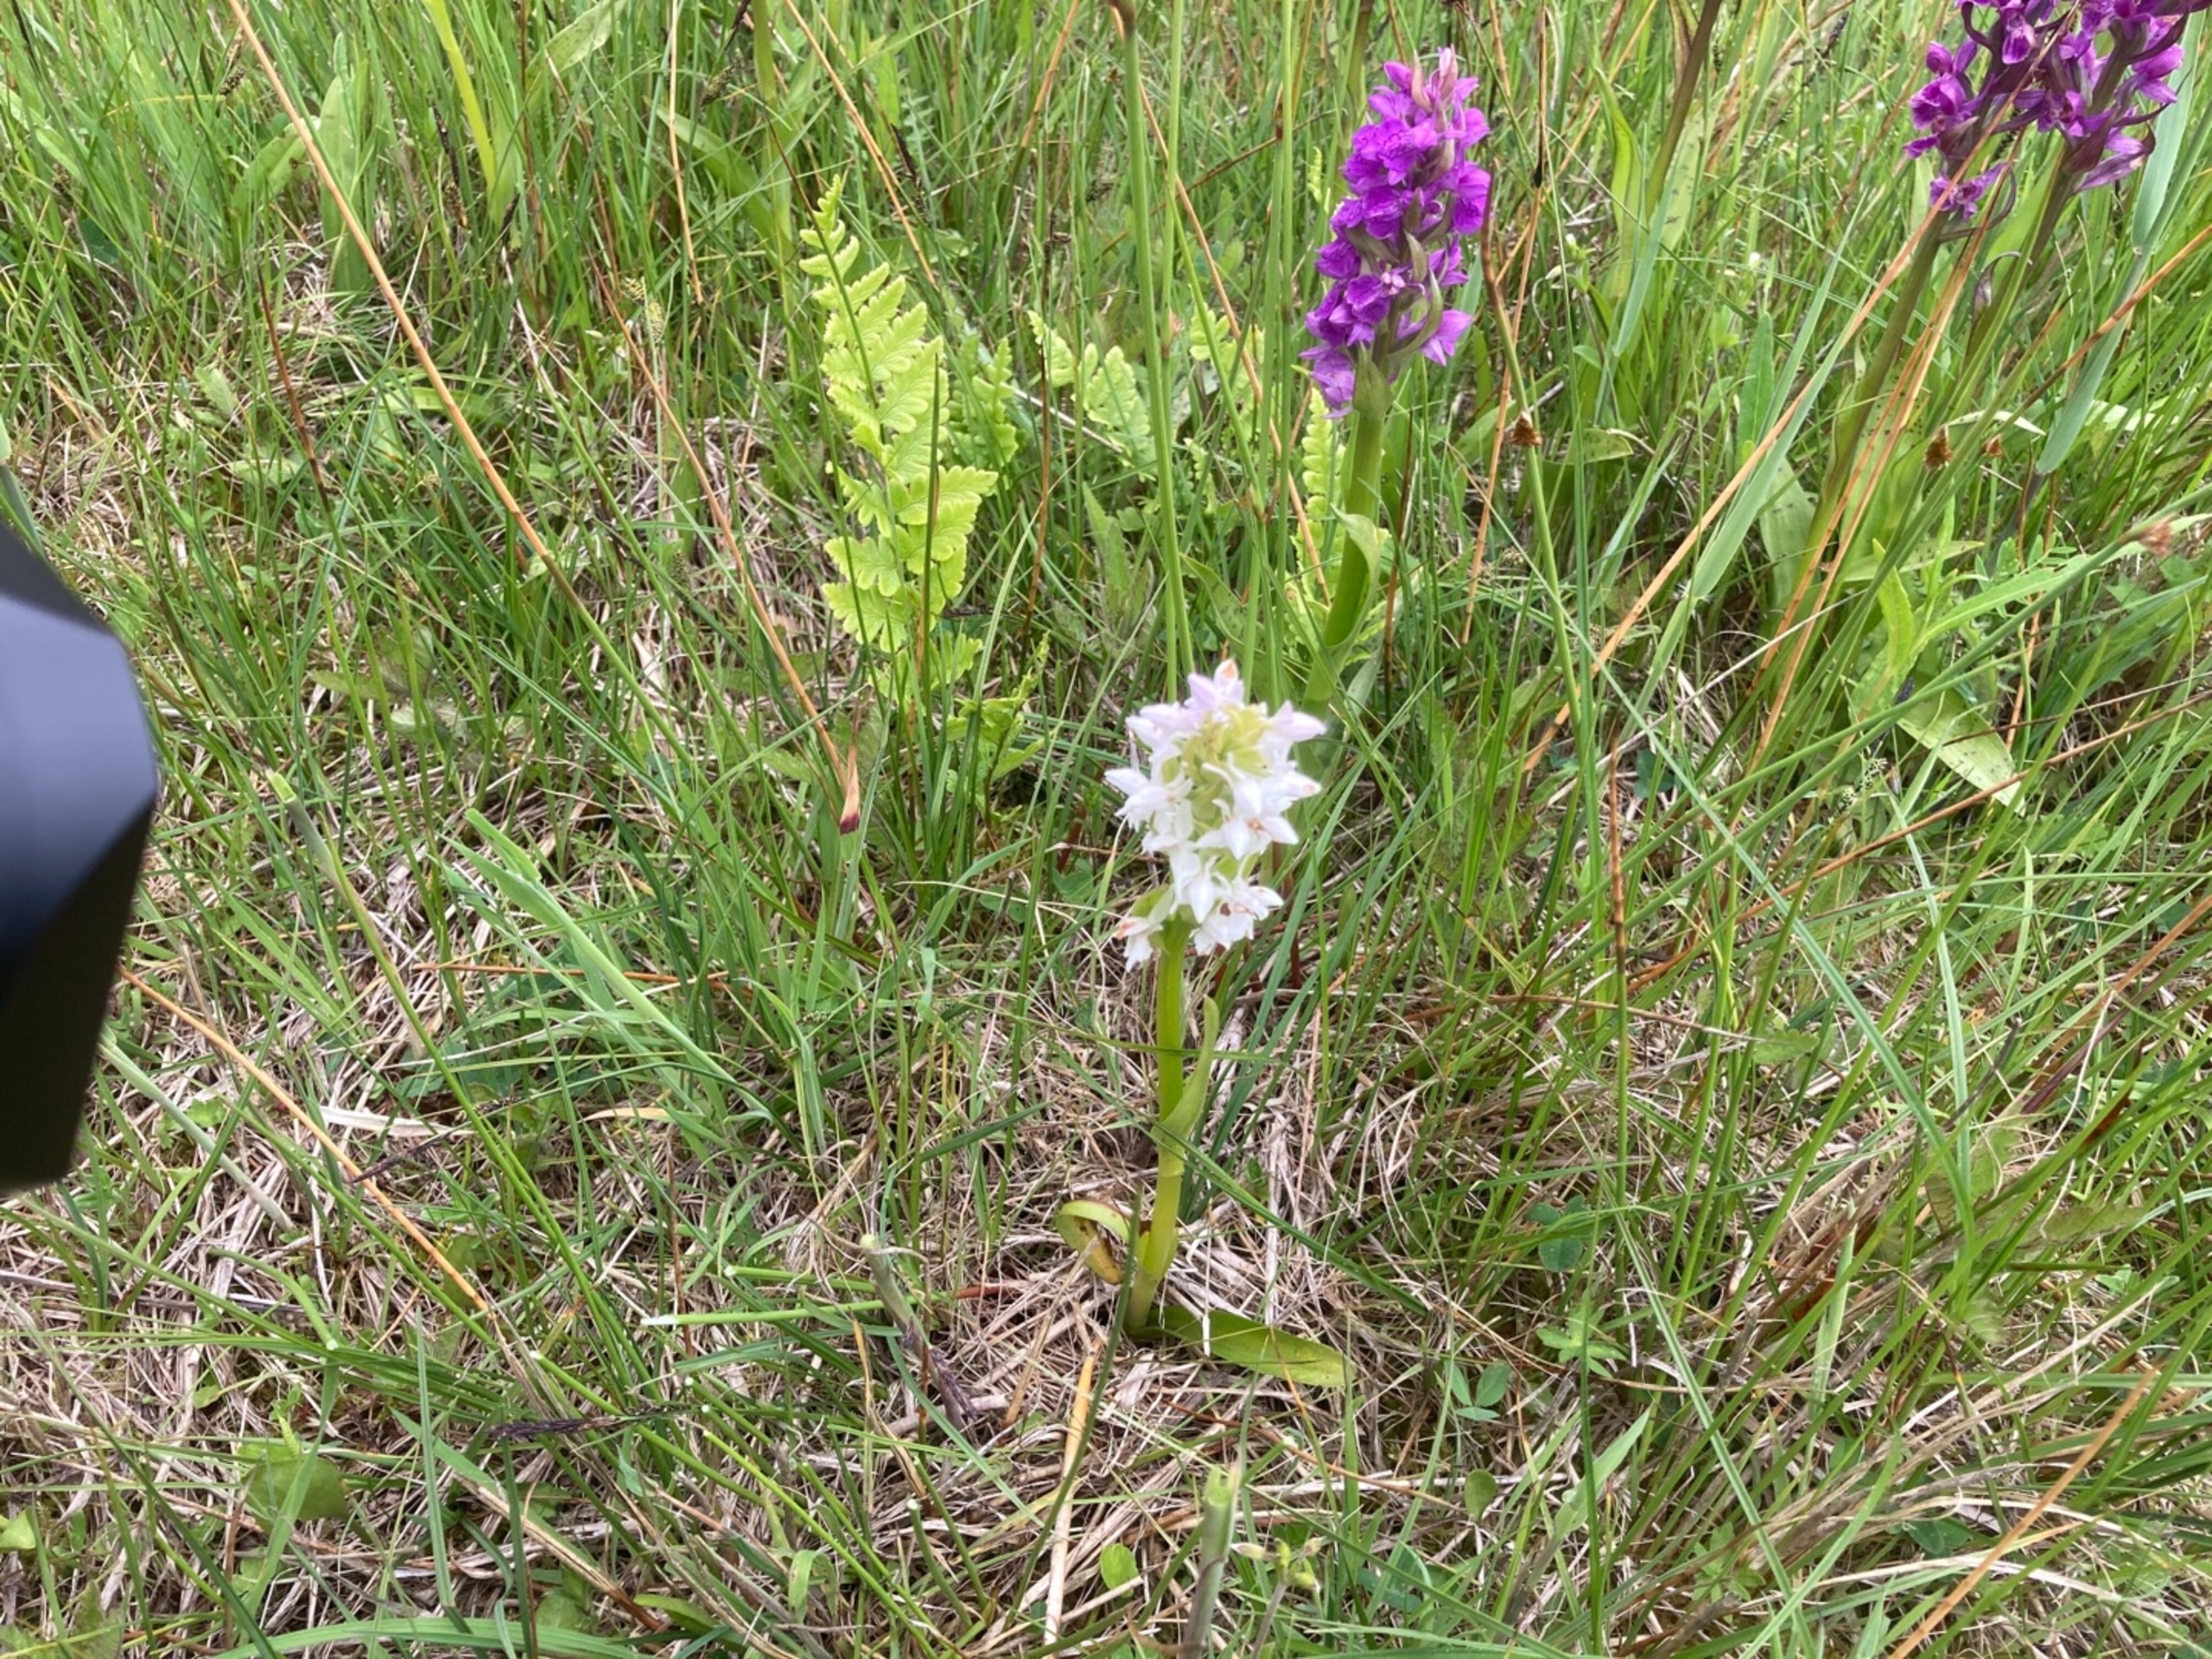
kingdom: Plantae
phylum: Tracheophyta
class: Liliopsida
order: Asparagales
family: Orchidaceae
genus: Dactylorhiza
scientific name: Dactylorhiza majalis
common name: Maj-gøgeurt
